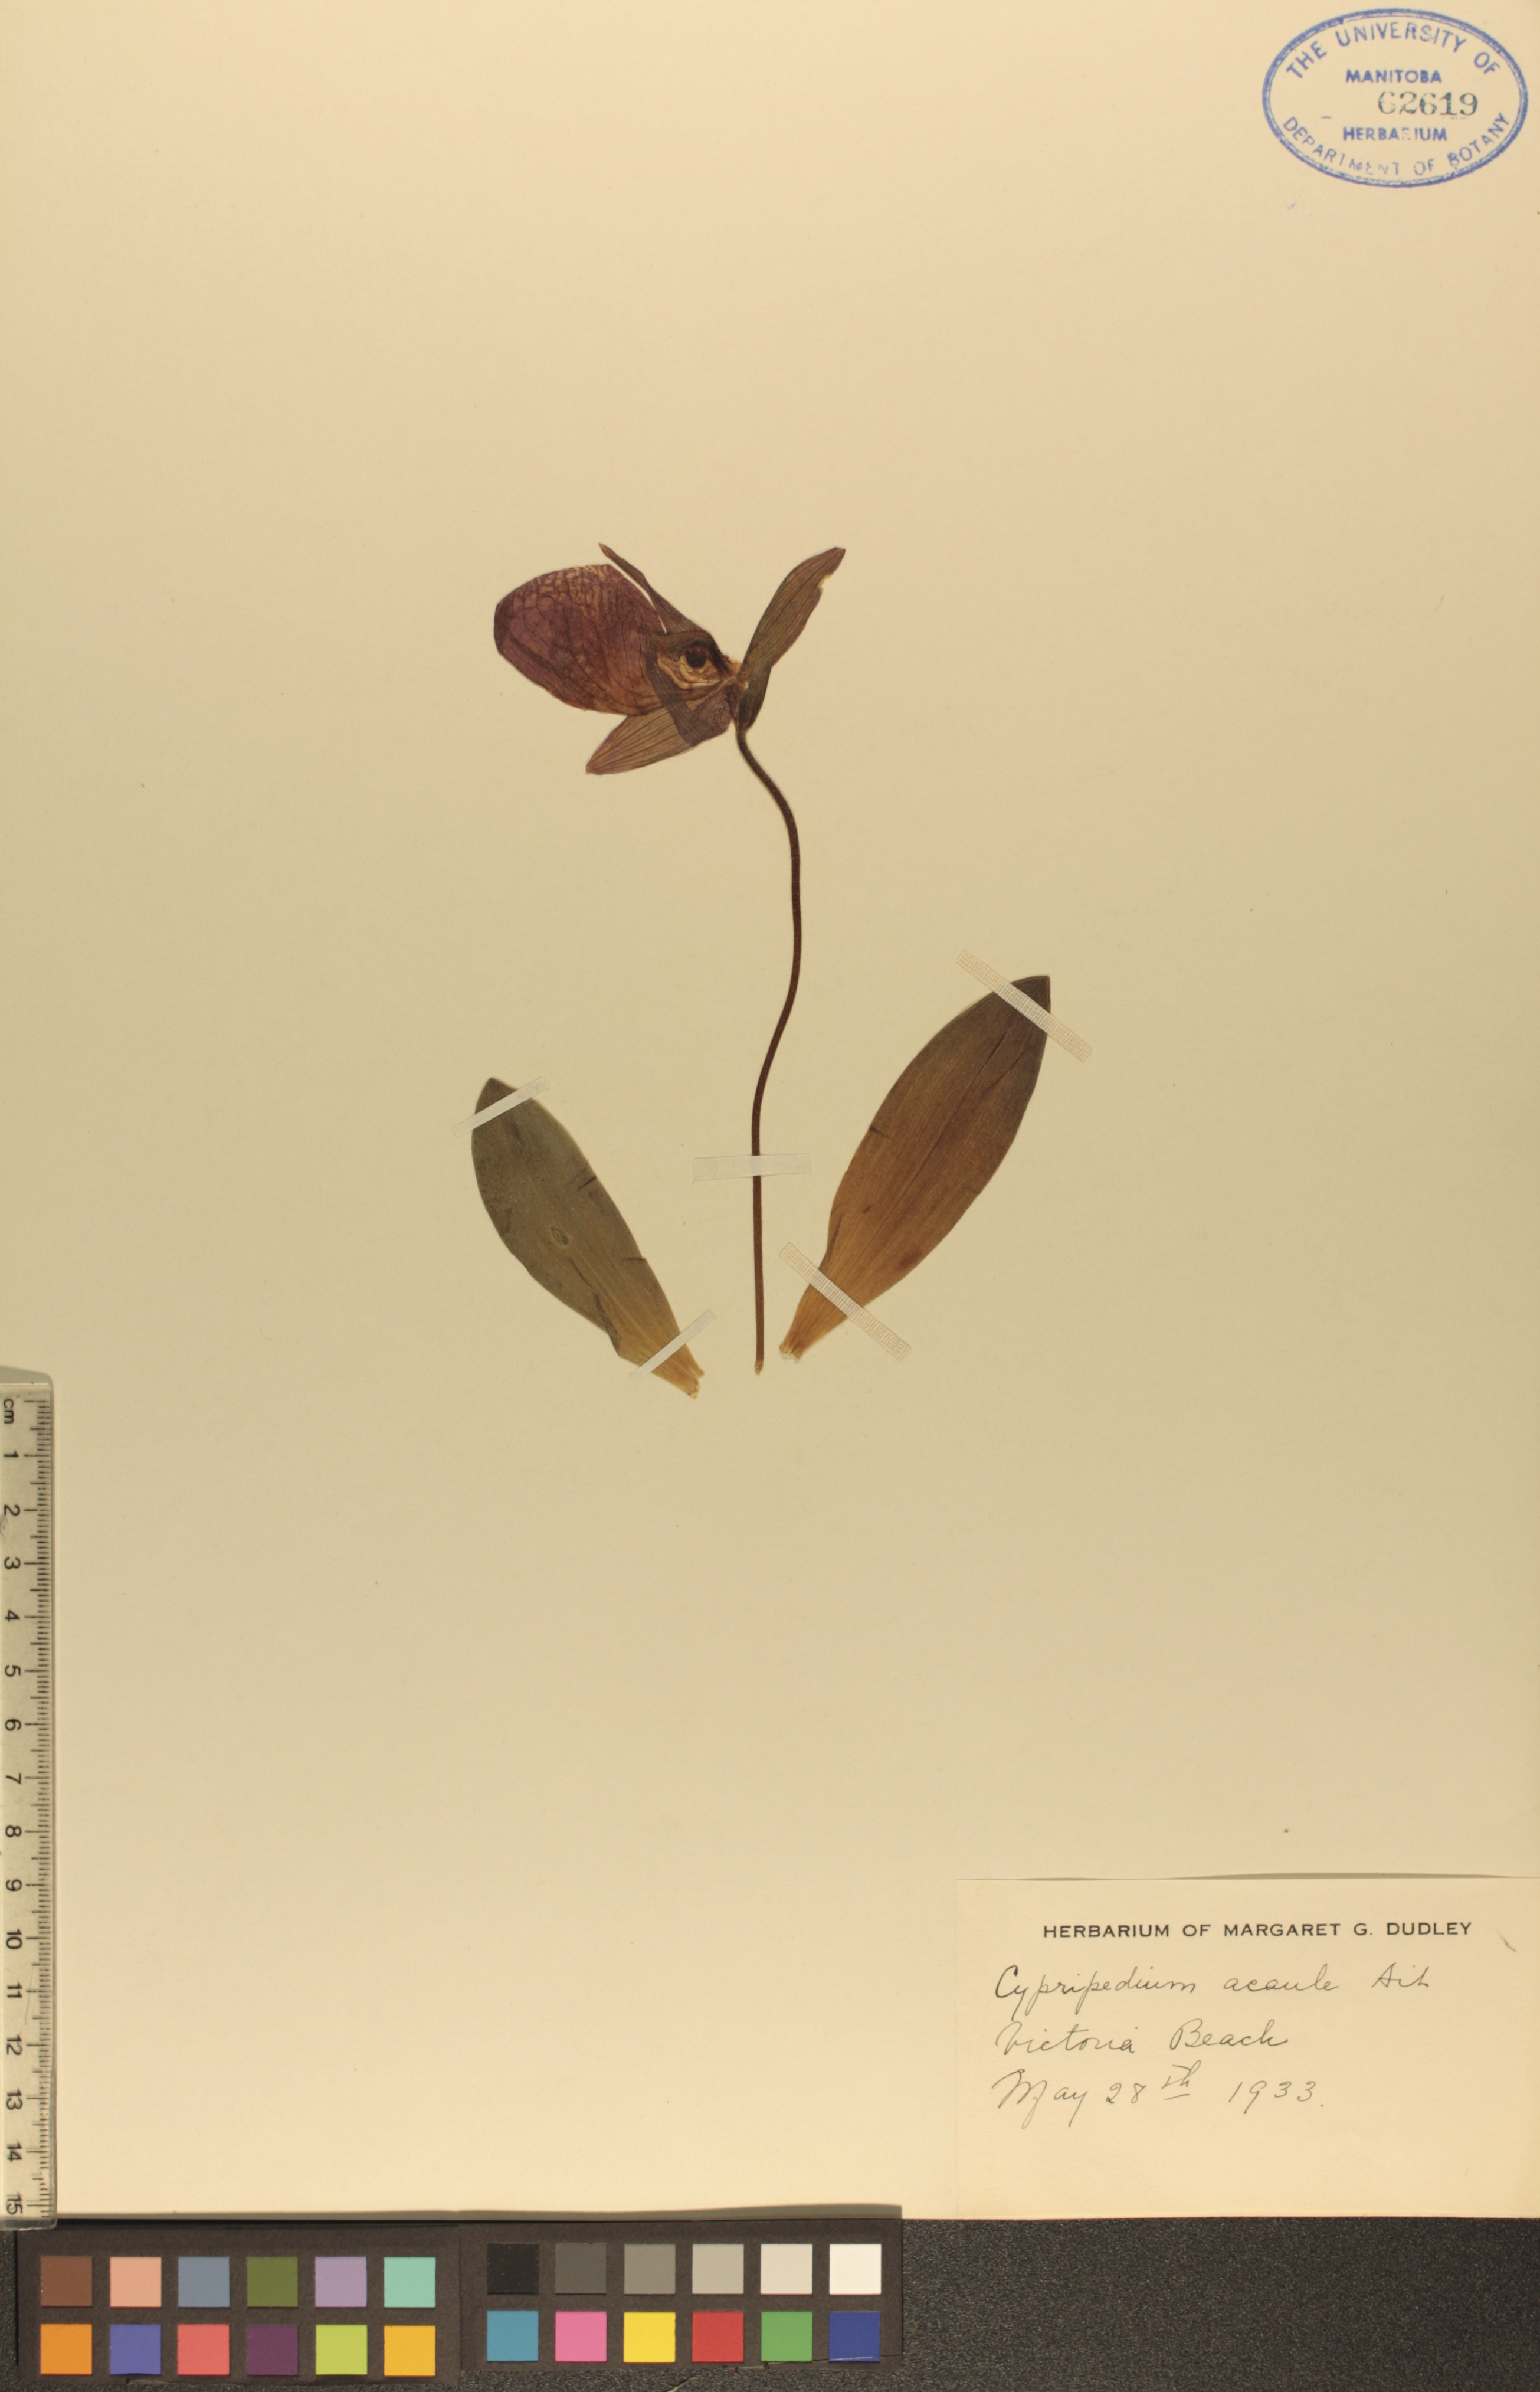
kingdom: Plantae
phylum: Tracheophyta
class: Liliopsida
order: Asparagales
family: Orchidaceae
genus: Cypripedium
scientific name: Cypripedium acaule
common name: Pink lady's-slipper
